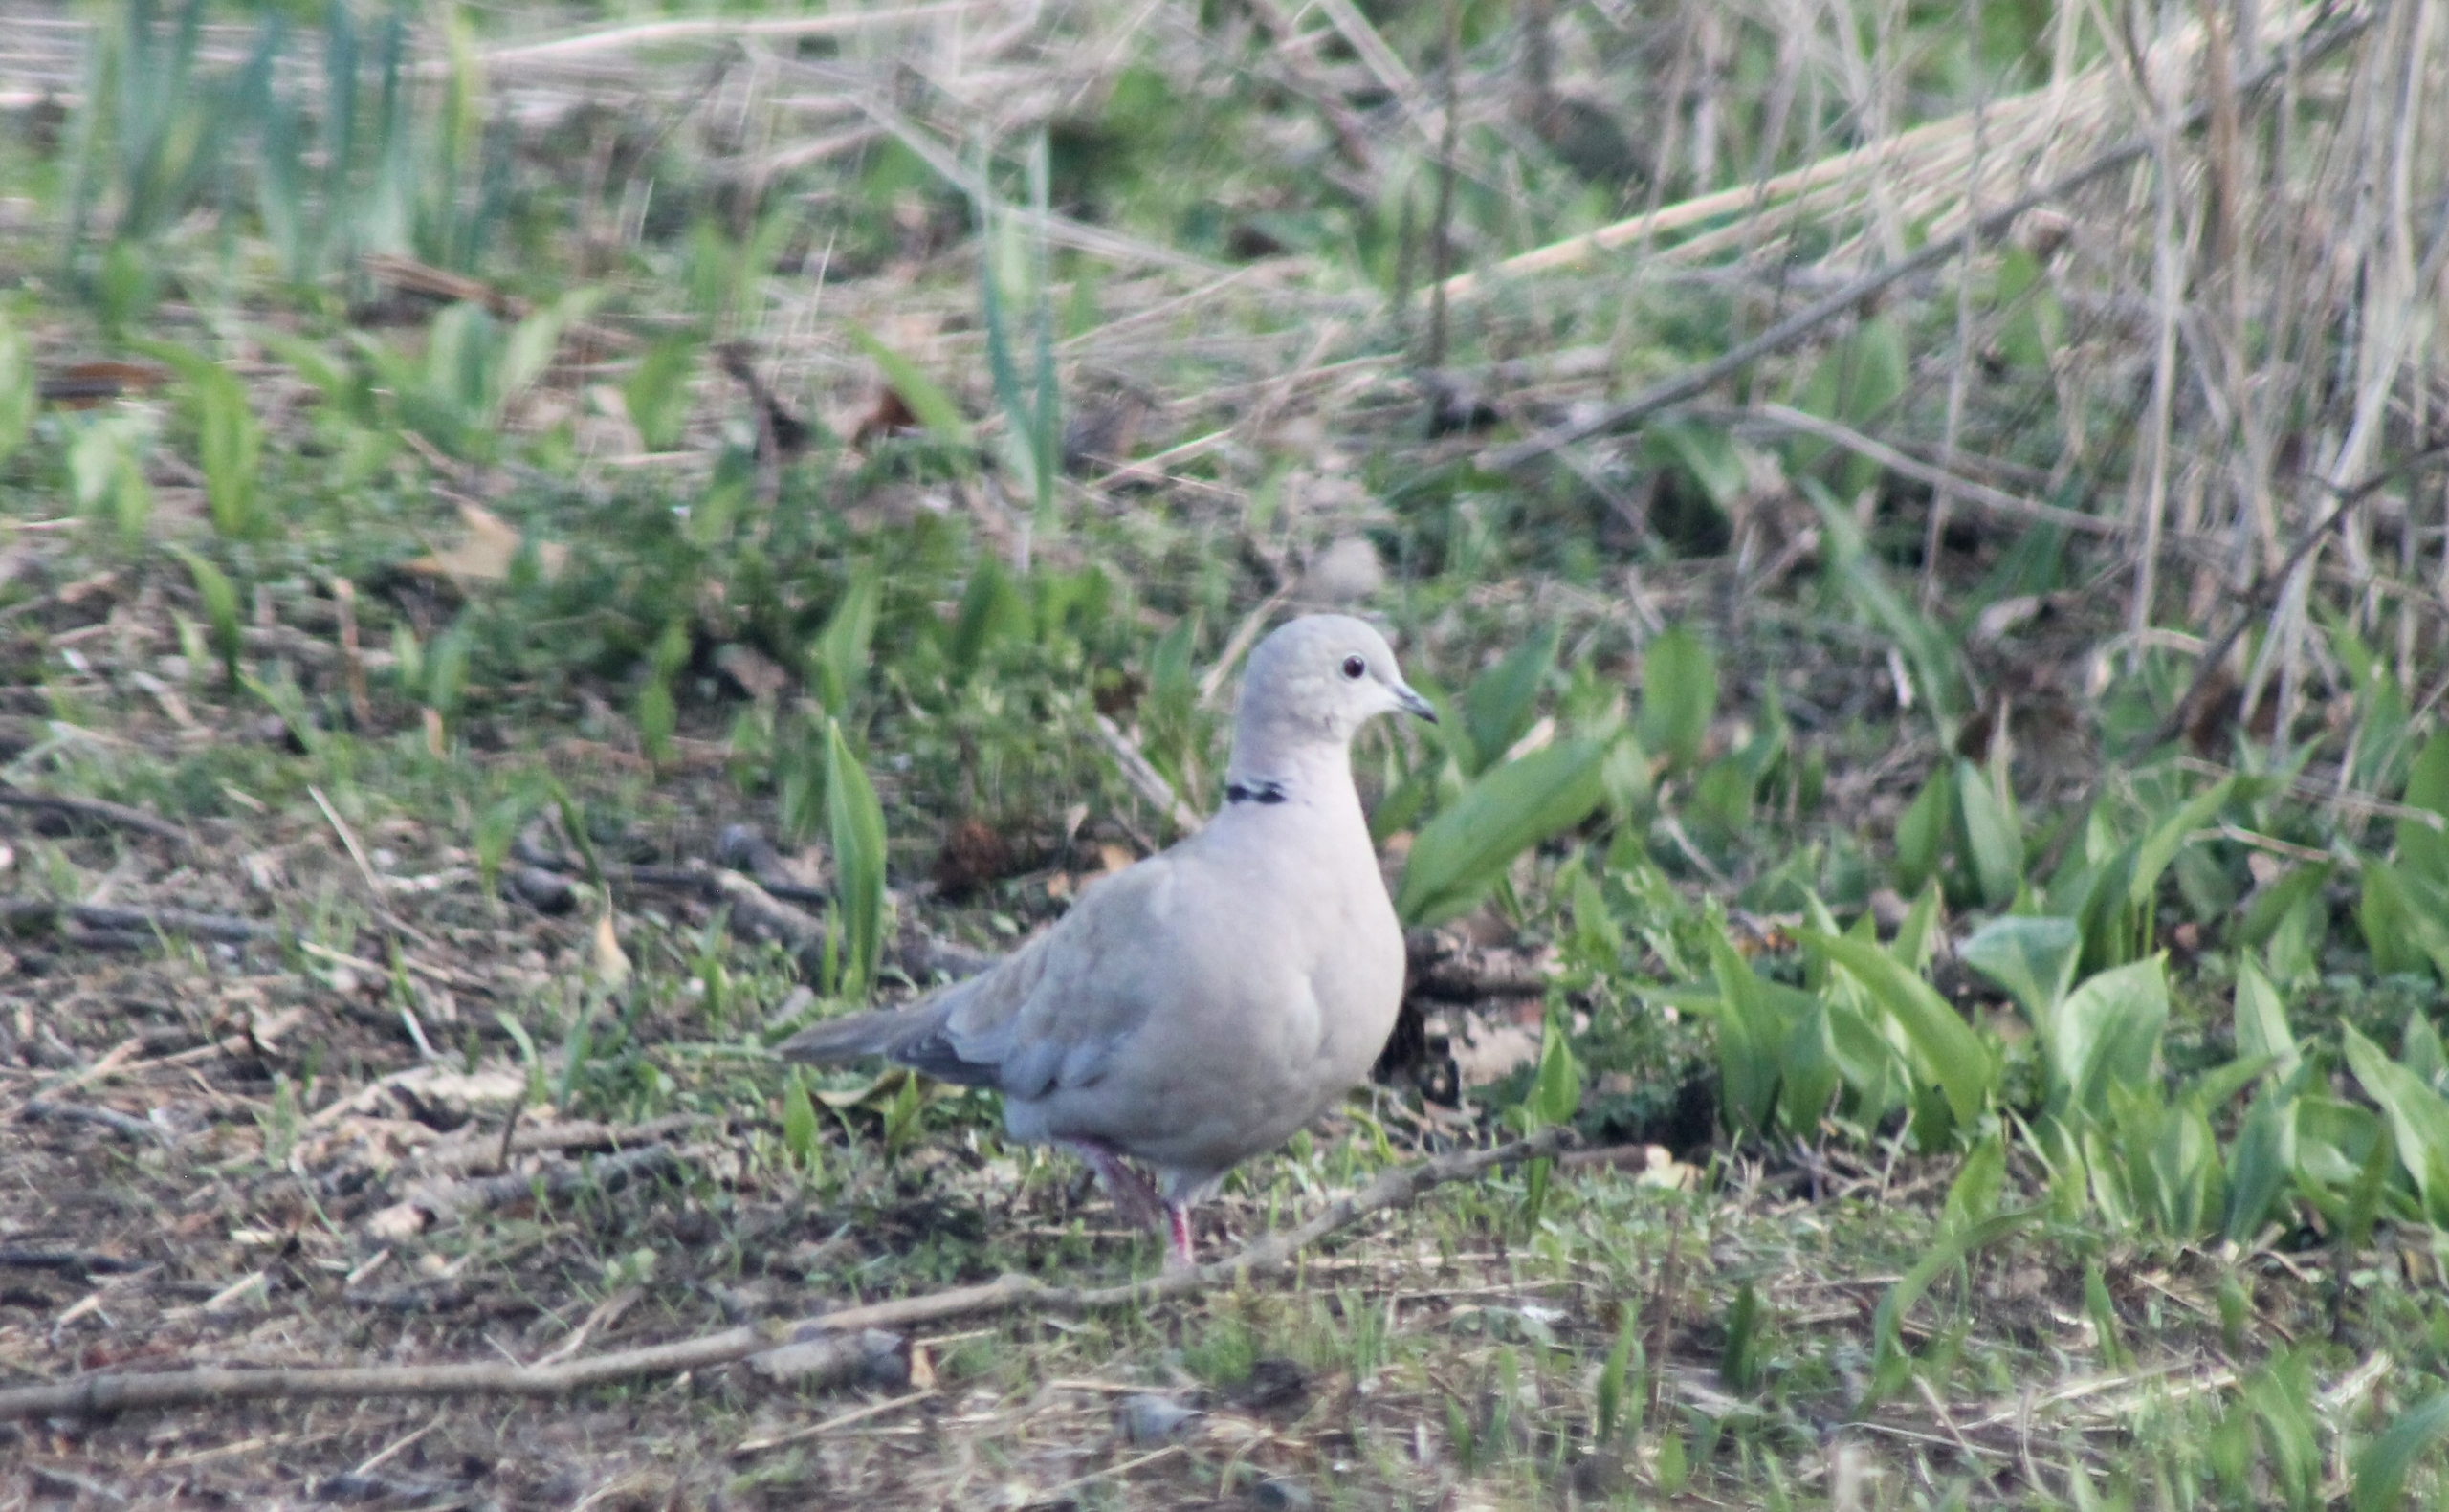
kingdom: Animalia
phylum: Chordata
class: Aves
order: Columbiformes
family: Columbidae
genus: Streptopelia
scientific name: Streptopelia decaocto
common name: Tyrkerdue
